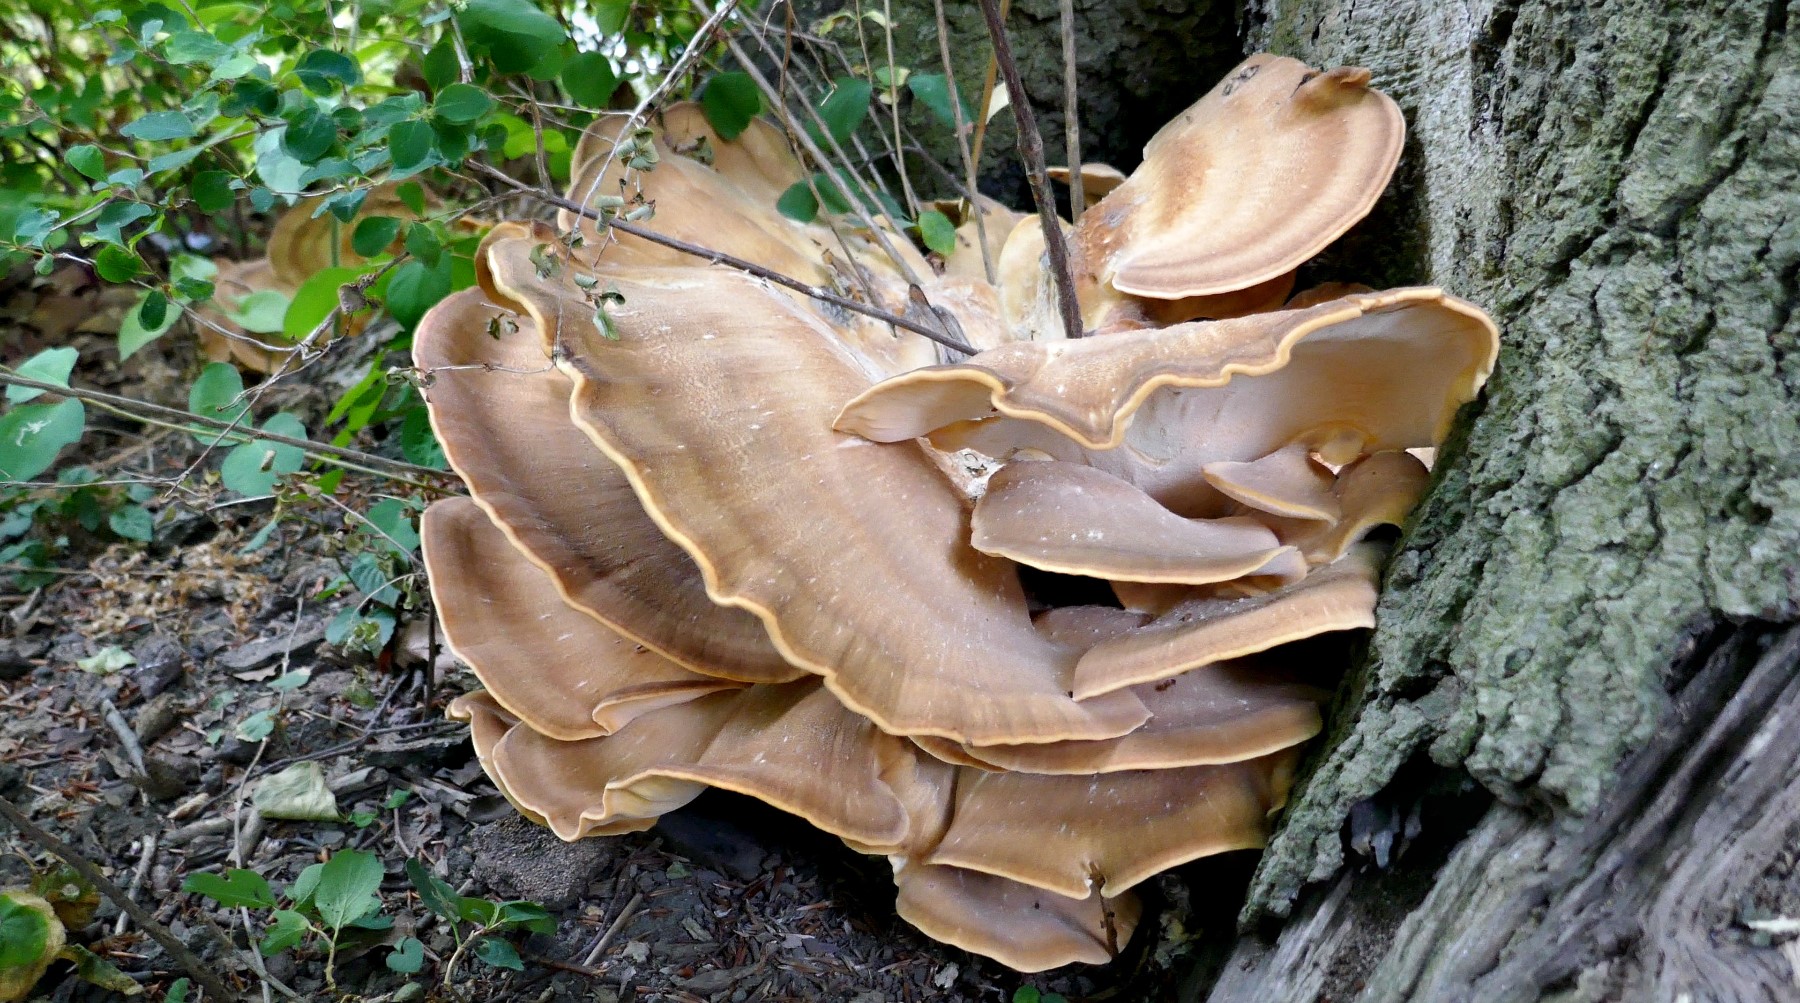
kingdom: Fungi
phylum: Basidiomycota
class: Agaricomycetes
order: Polyporales
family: Meripilaceae
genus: Meripilus
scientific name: Meripilus giganteus
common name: kæmpeporesvamp
